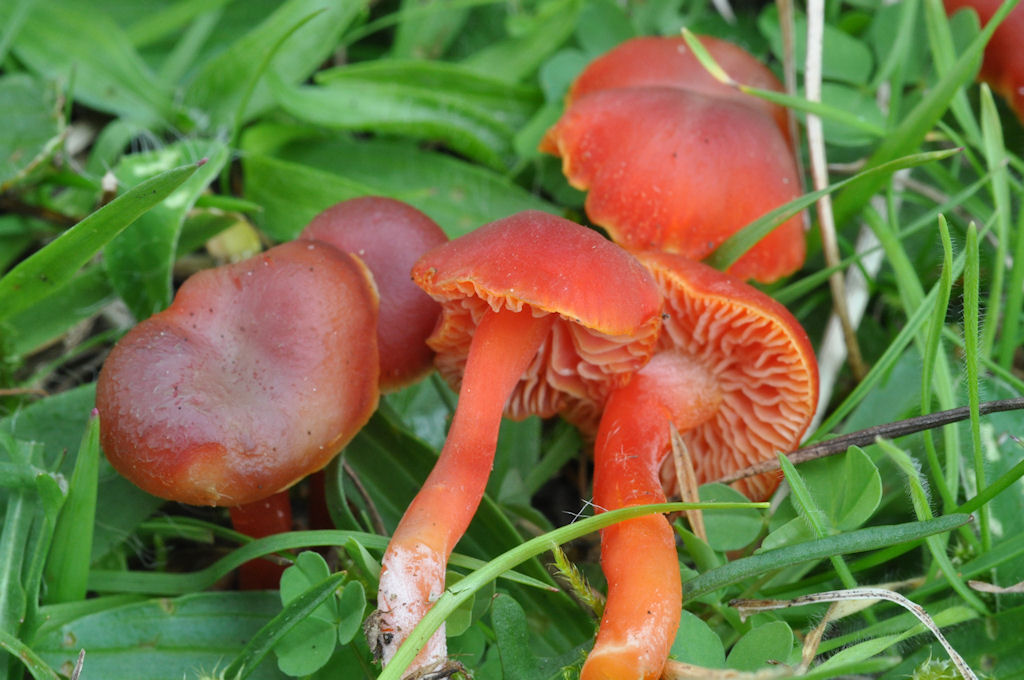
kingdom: Fungi
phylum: Basidiomycota
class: Agaricomycetes
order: Agaricales
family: Hygrophoraceae
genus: Hygrocybe
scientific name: Hygrocybe phaeococcinea
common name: sortdugget vokshat
